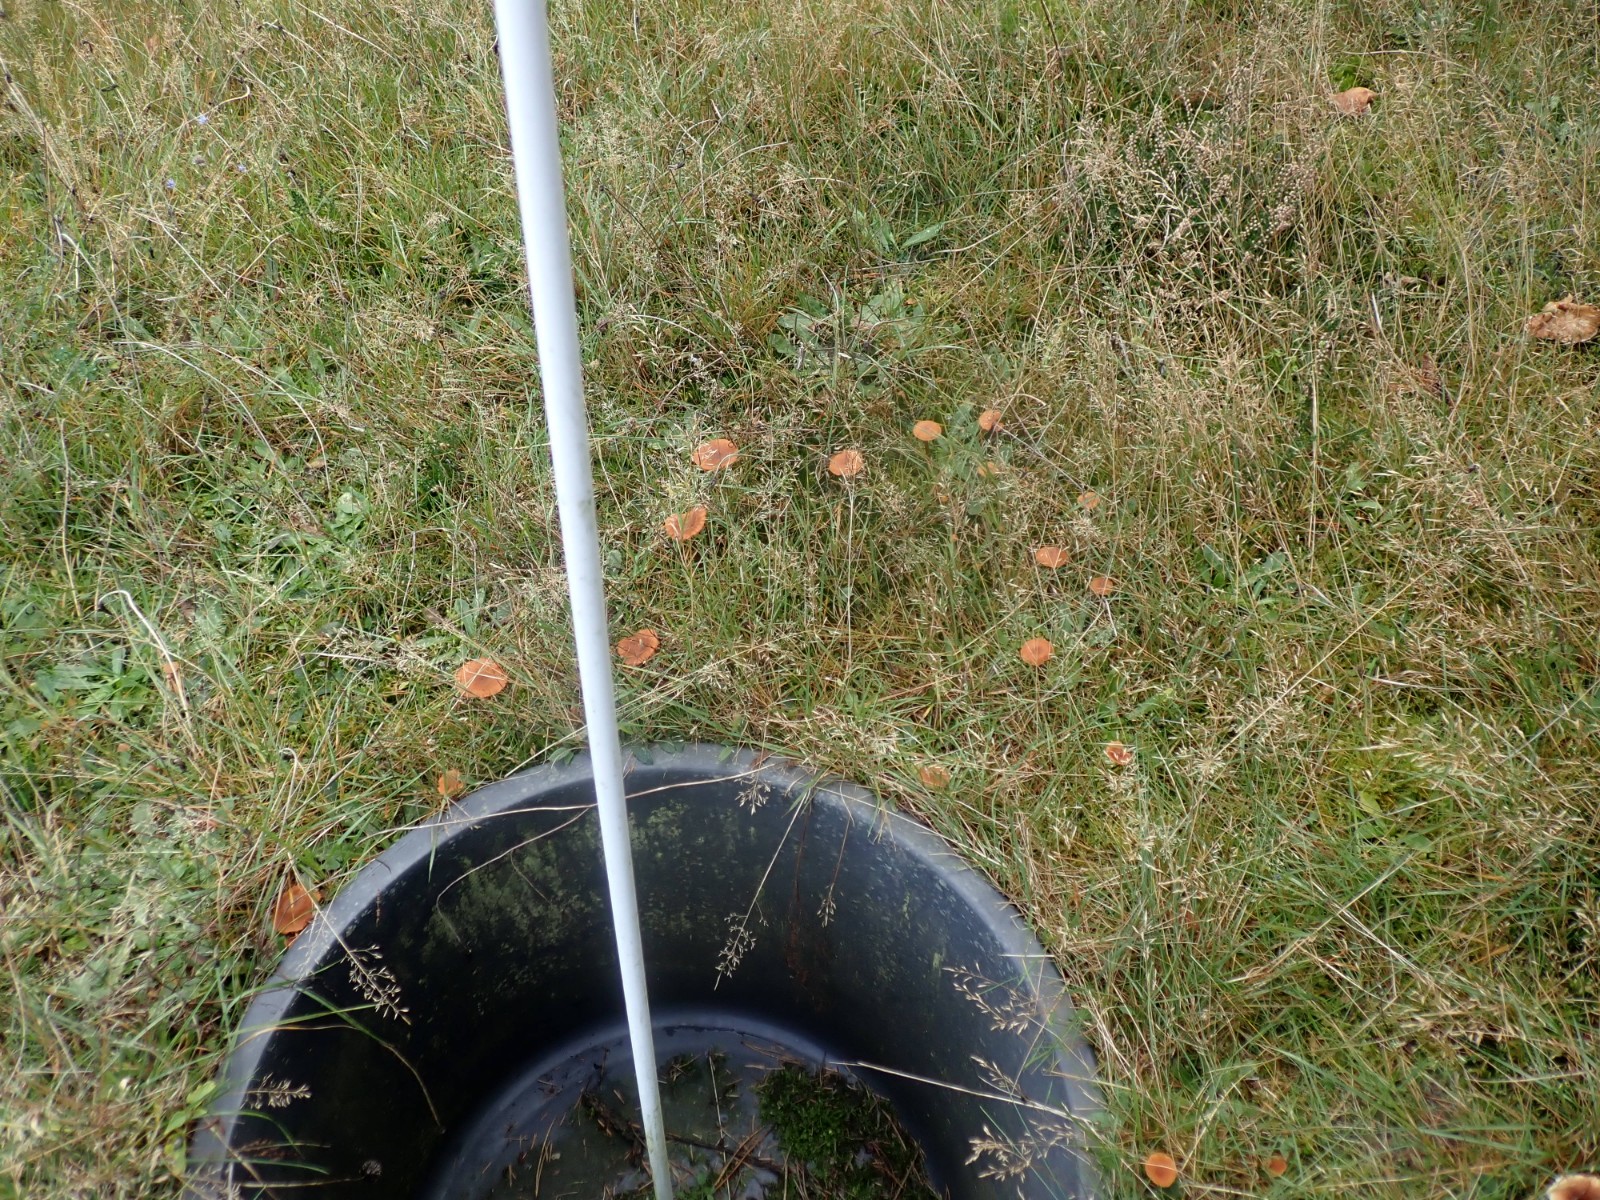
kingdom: Fungi
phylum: Basidiomycota
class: Agaricomycetes
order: Agaricales
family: Hydnangiaceae
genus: Laccaria
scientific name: Laccaria laccata
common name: rød ametysthat
